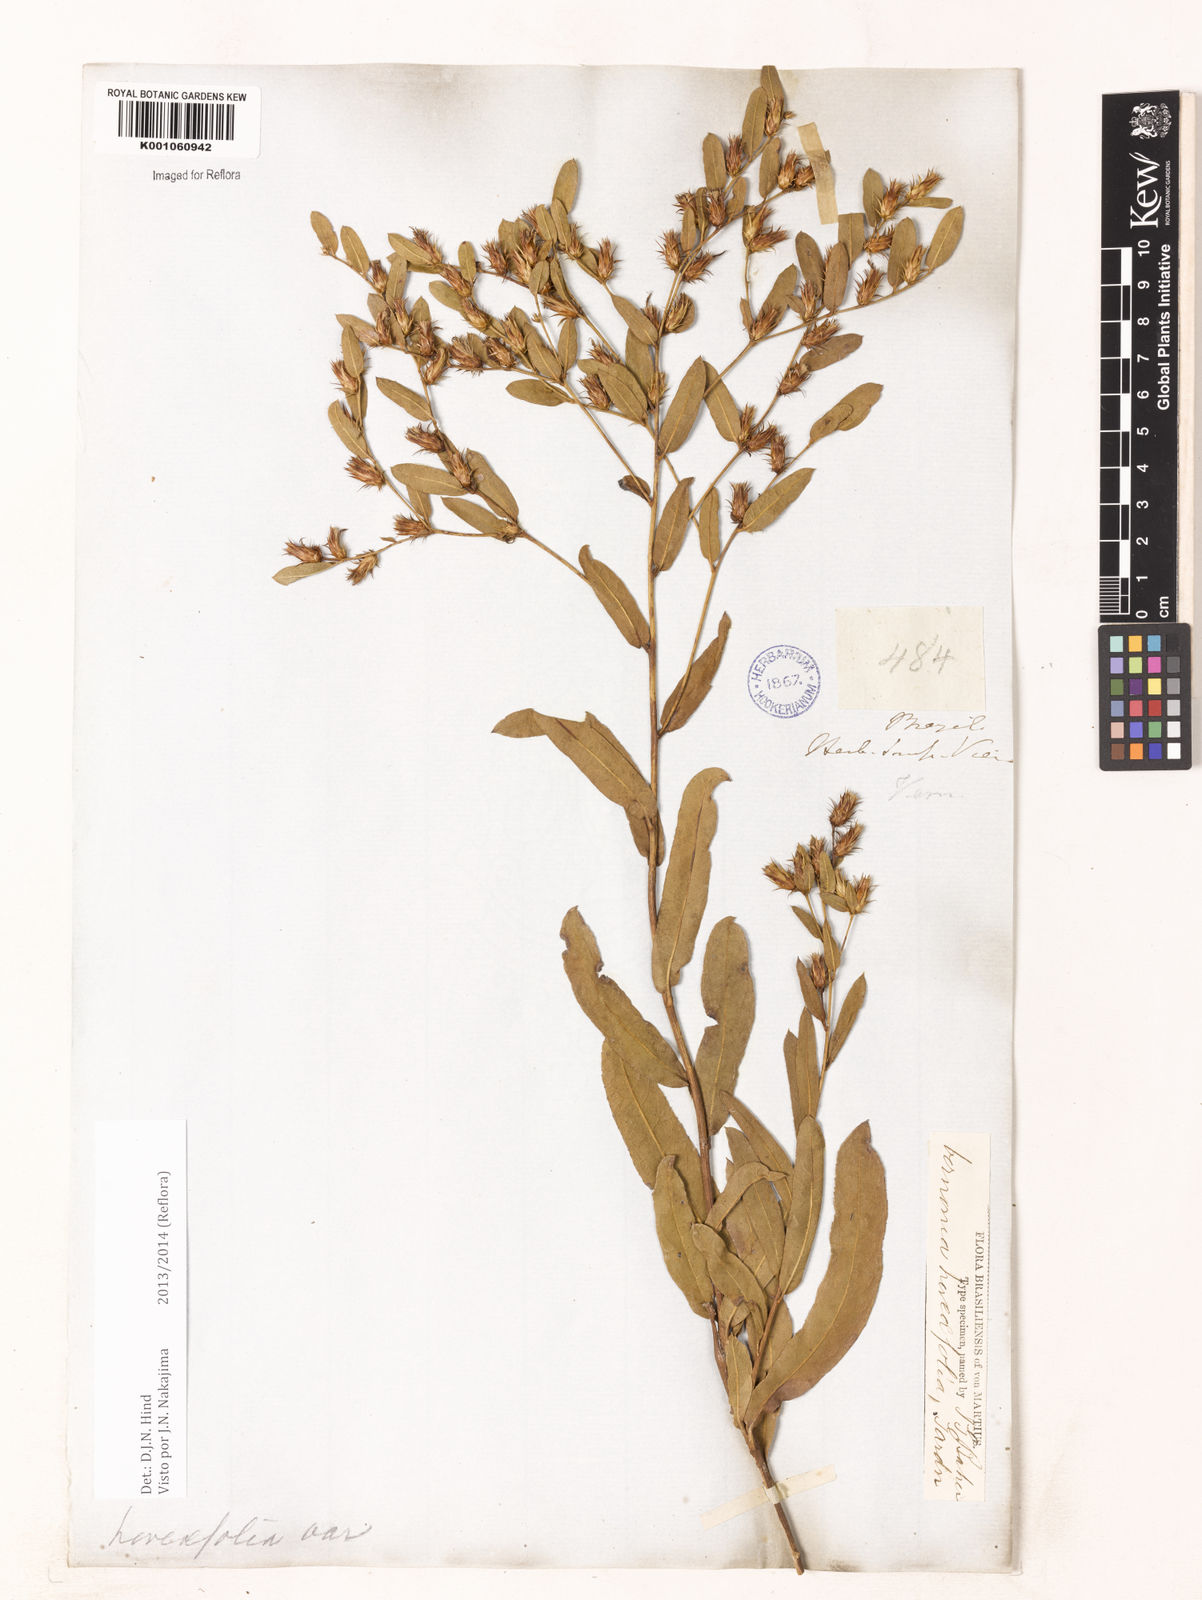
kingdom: Plantae
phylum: Tracheophyta
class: Magnoliopsida
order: Asterales
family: Asteraceae
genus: Lessingianthus
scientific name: Lessingianthus hoveifolius
